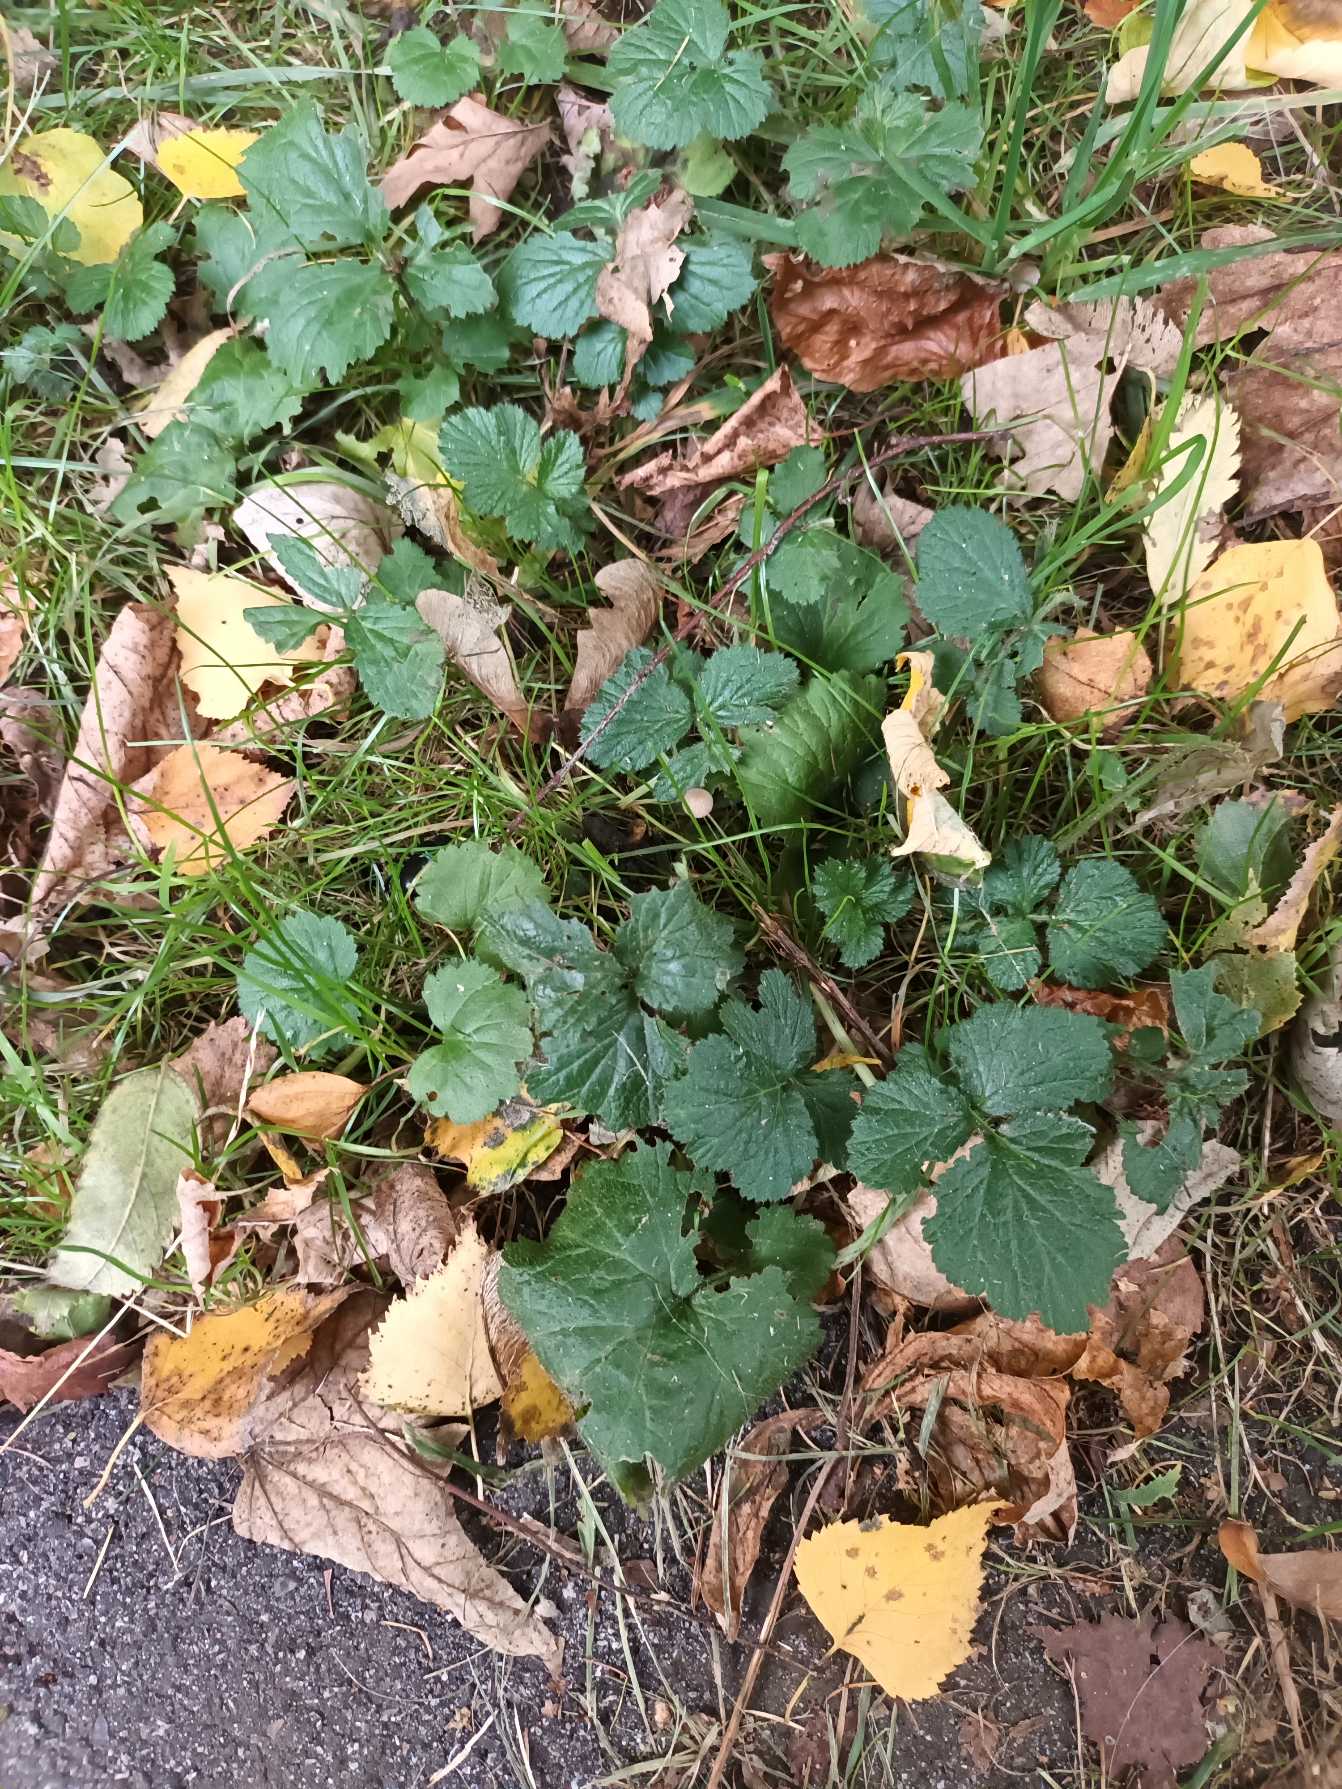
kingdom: Plantae
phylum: Tracheophyta
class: Magnoliopsida
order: Rosales
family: Rosaceae
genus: Geum
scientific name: Geum urbanum
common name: Feber-nellikerod
